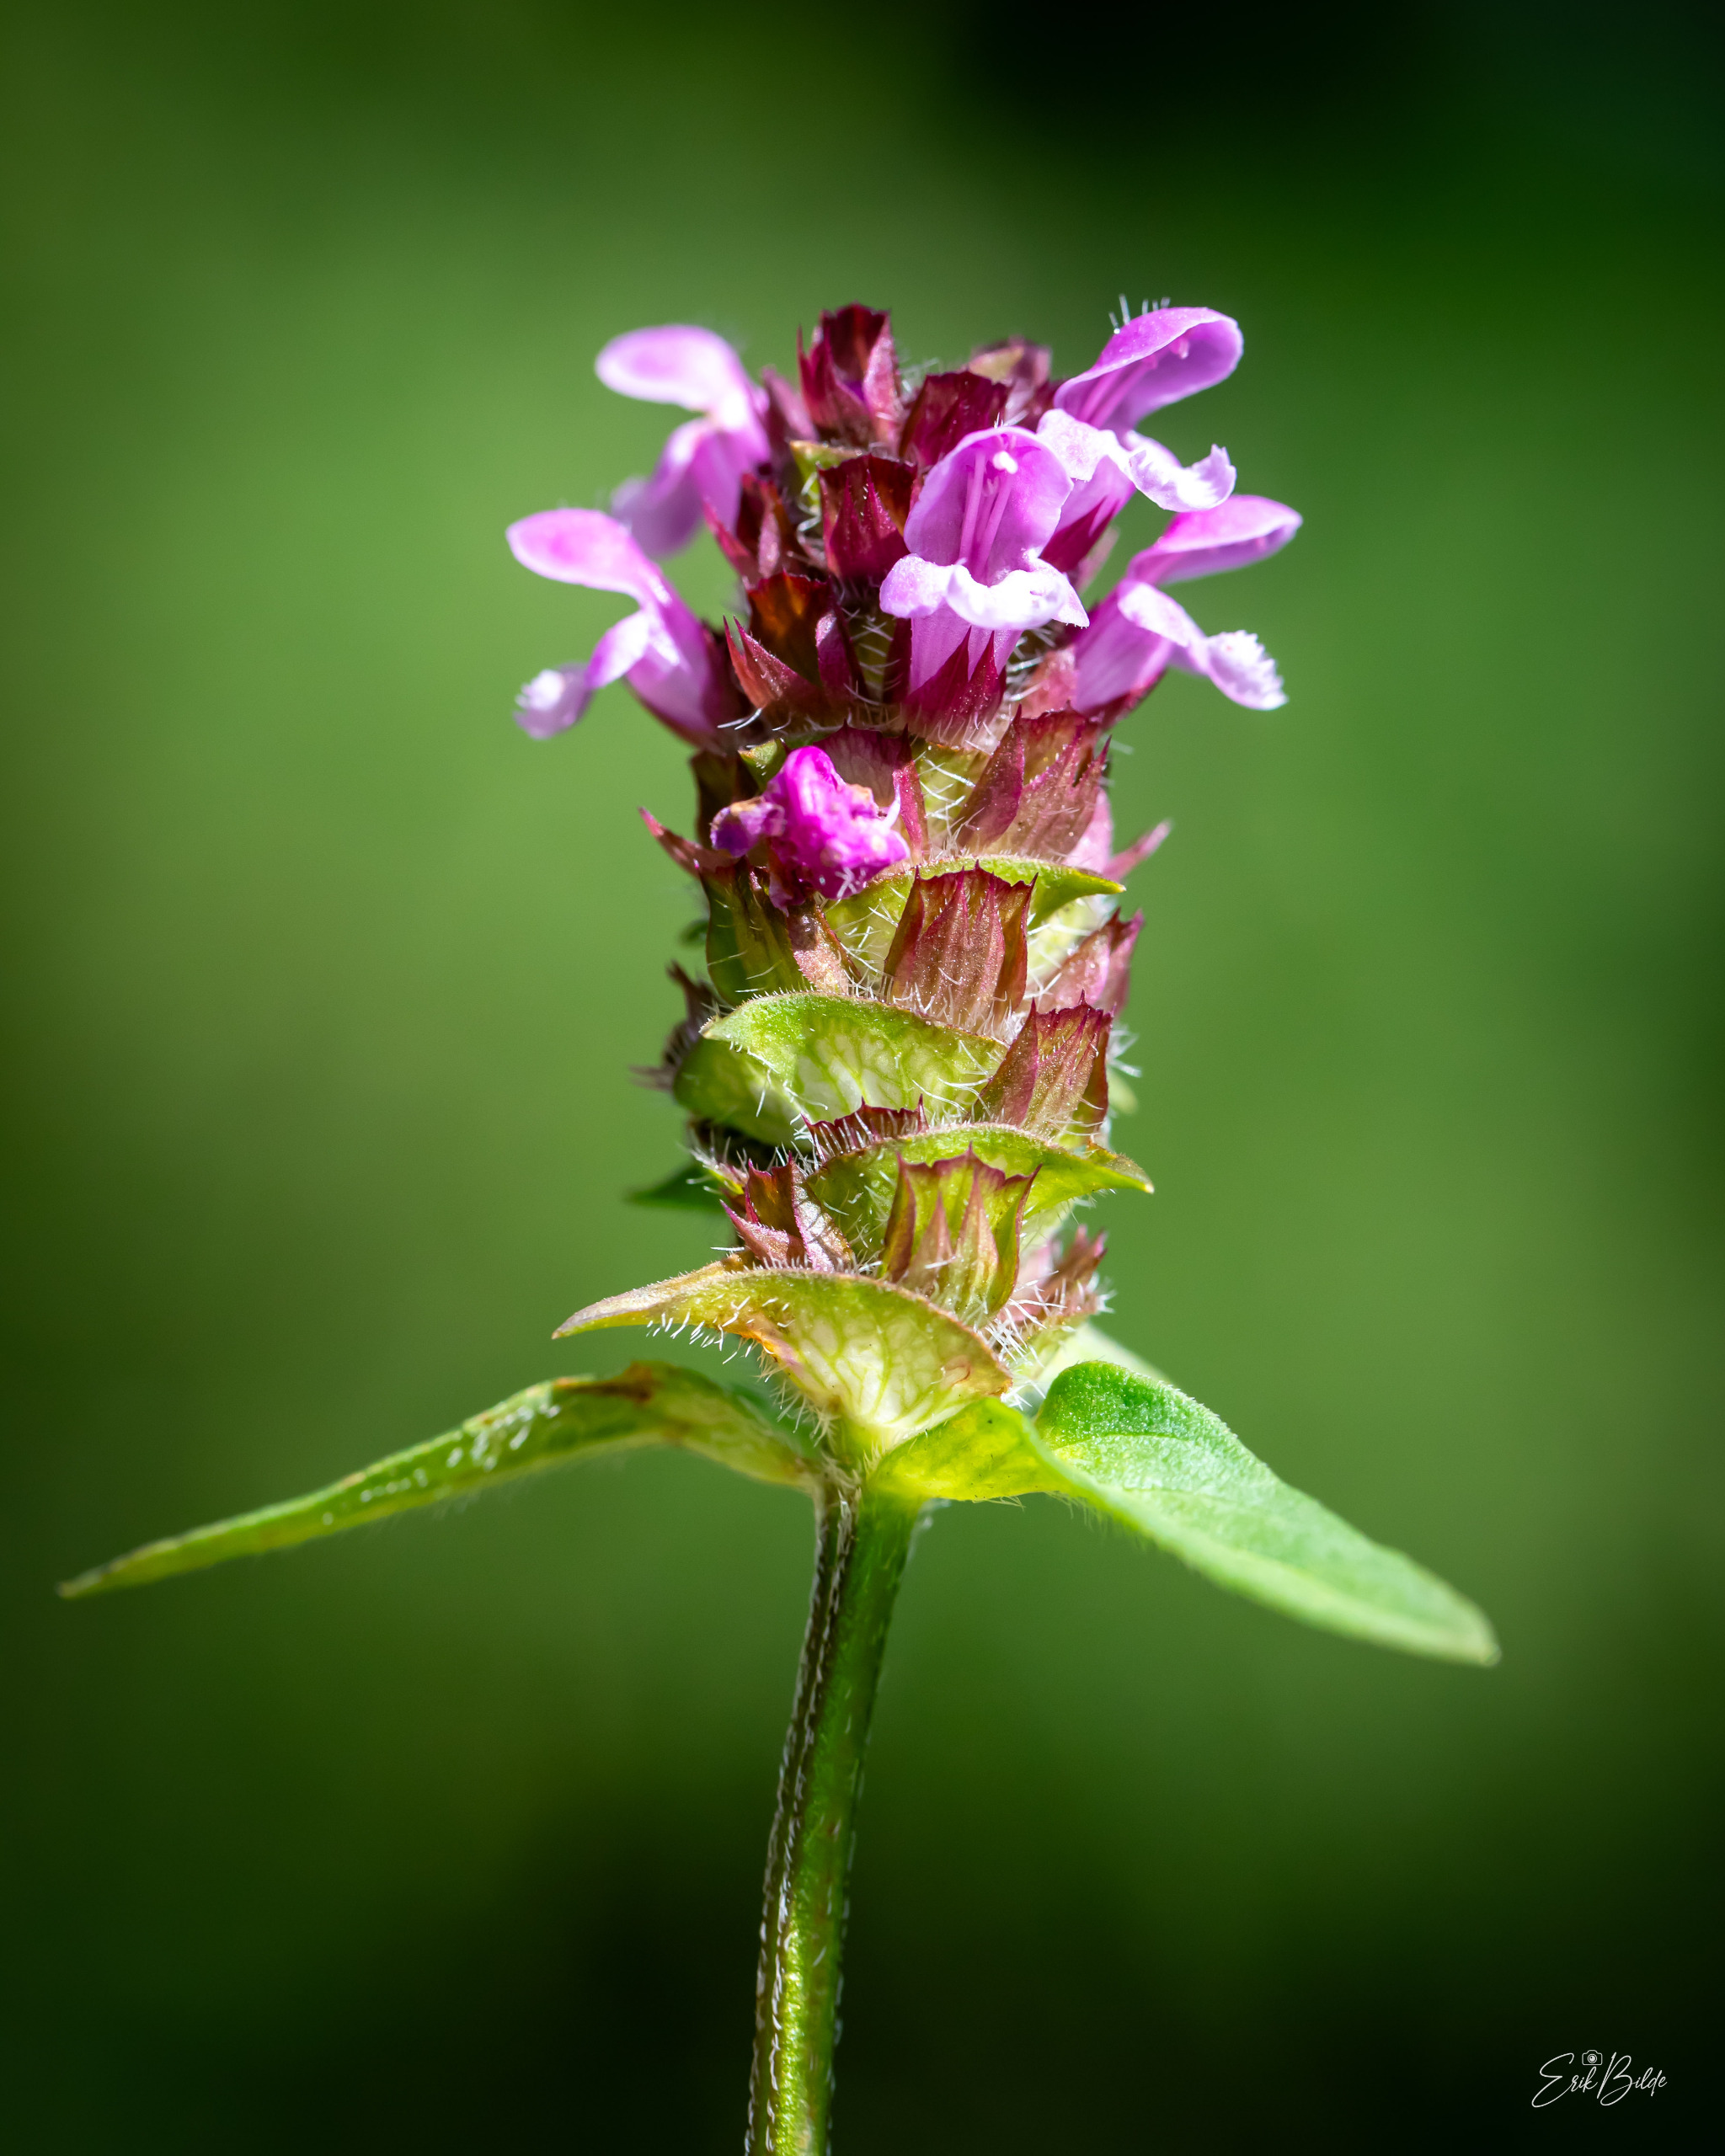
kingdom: Plantae
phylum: Tracheophyta
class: Magnoliopsida
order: Lamiales
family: Lamiaceae
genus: Prunella
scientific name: Prunella vulgaris
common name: Almindelig brunelle
